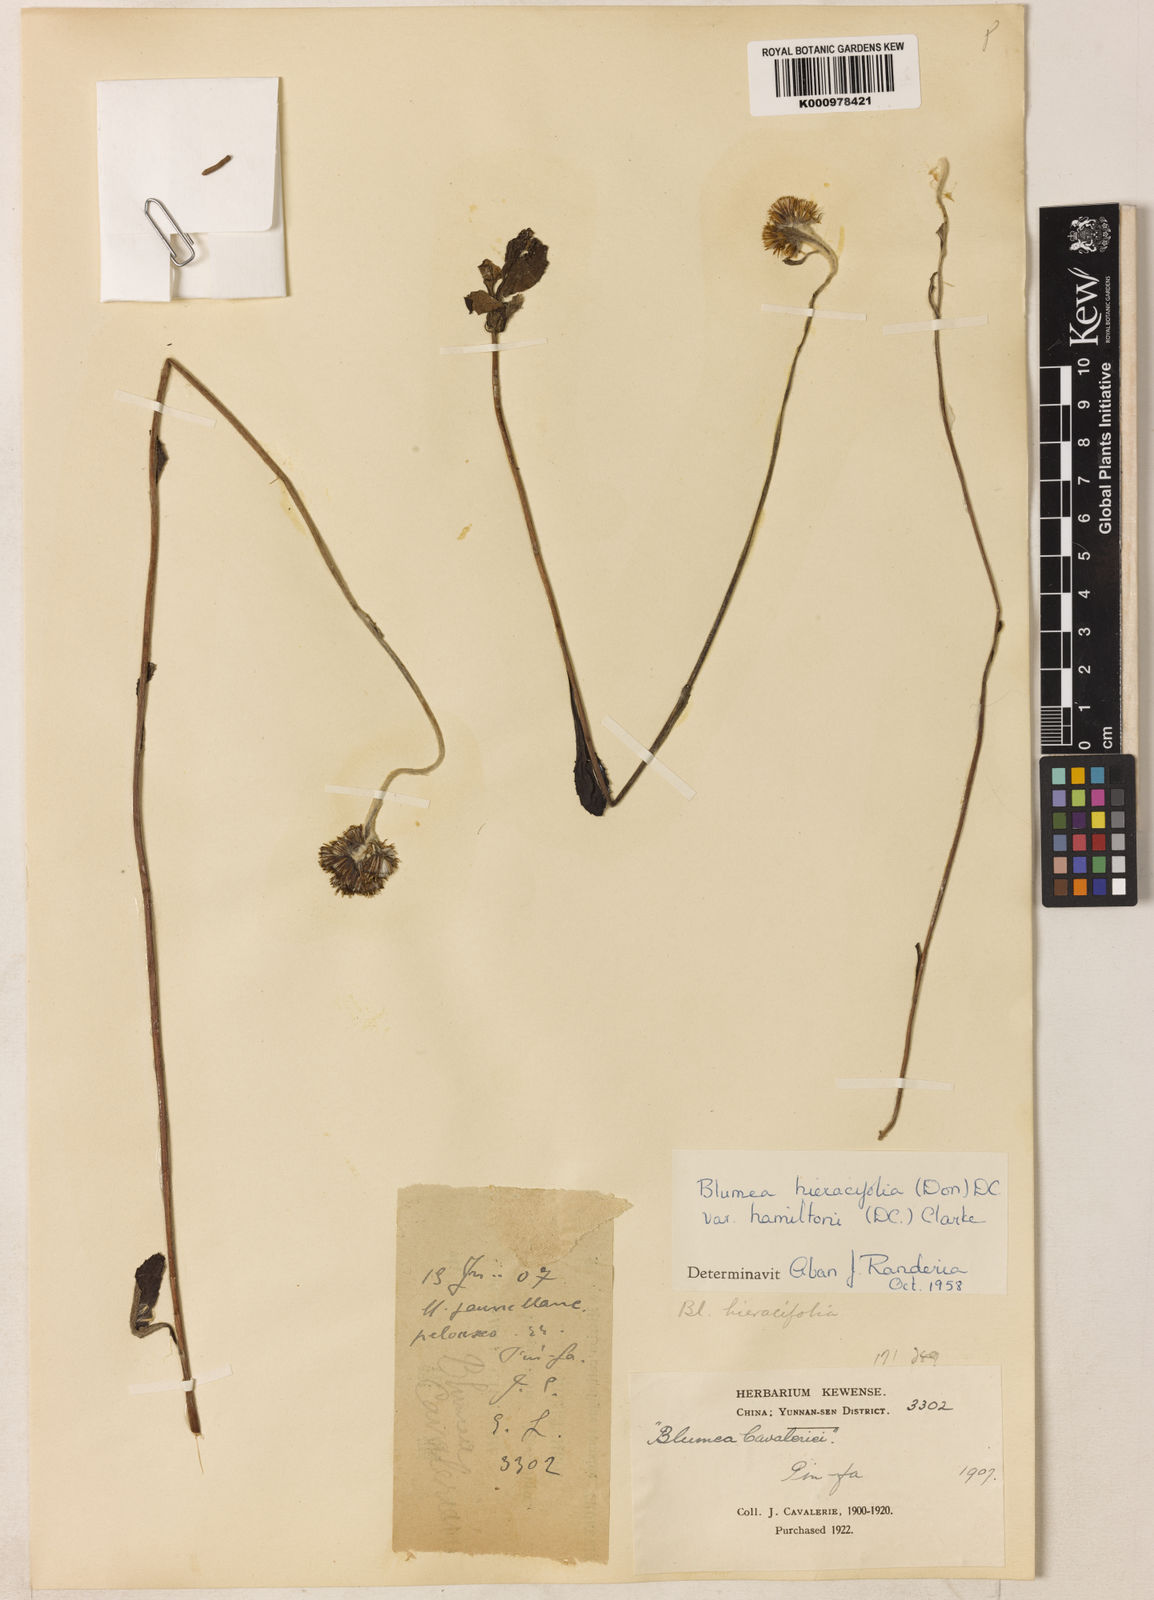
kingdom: Plantae
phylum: Tracheophyta
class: Magnoliopsida
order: Asterales
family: Asteraceae
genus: Blumea
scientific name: Blumea hieraciifolia
